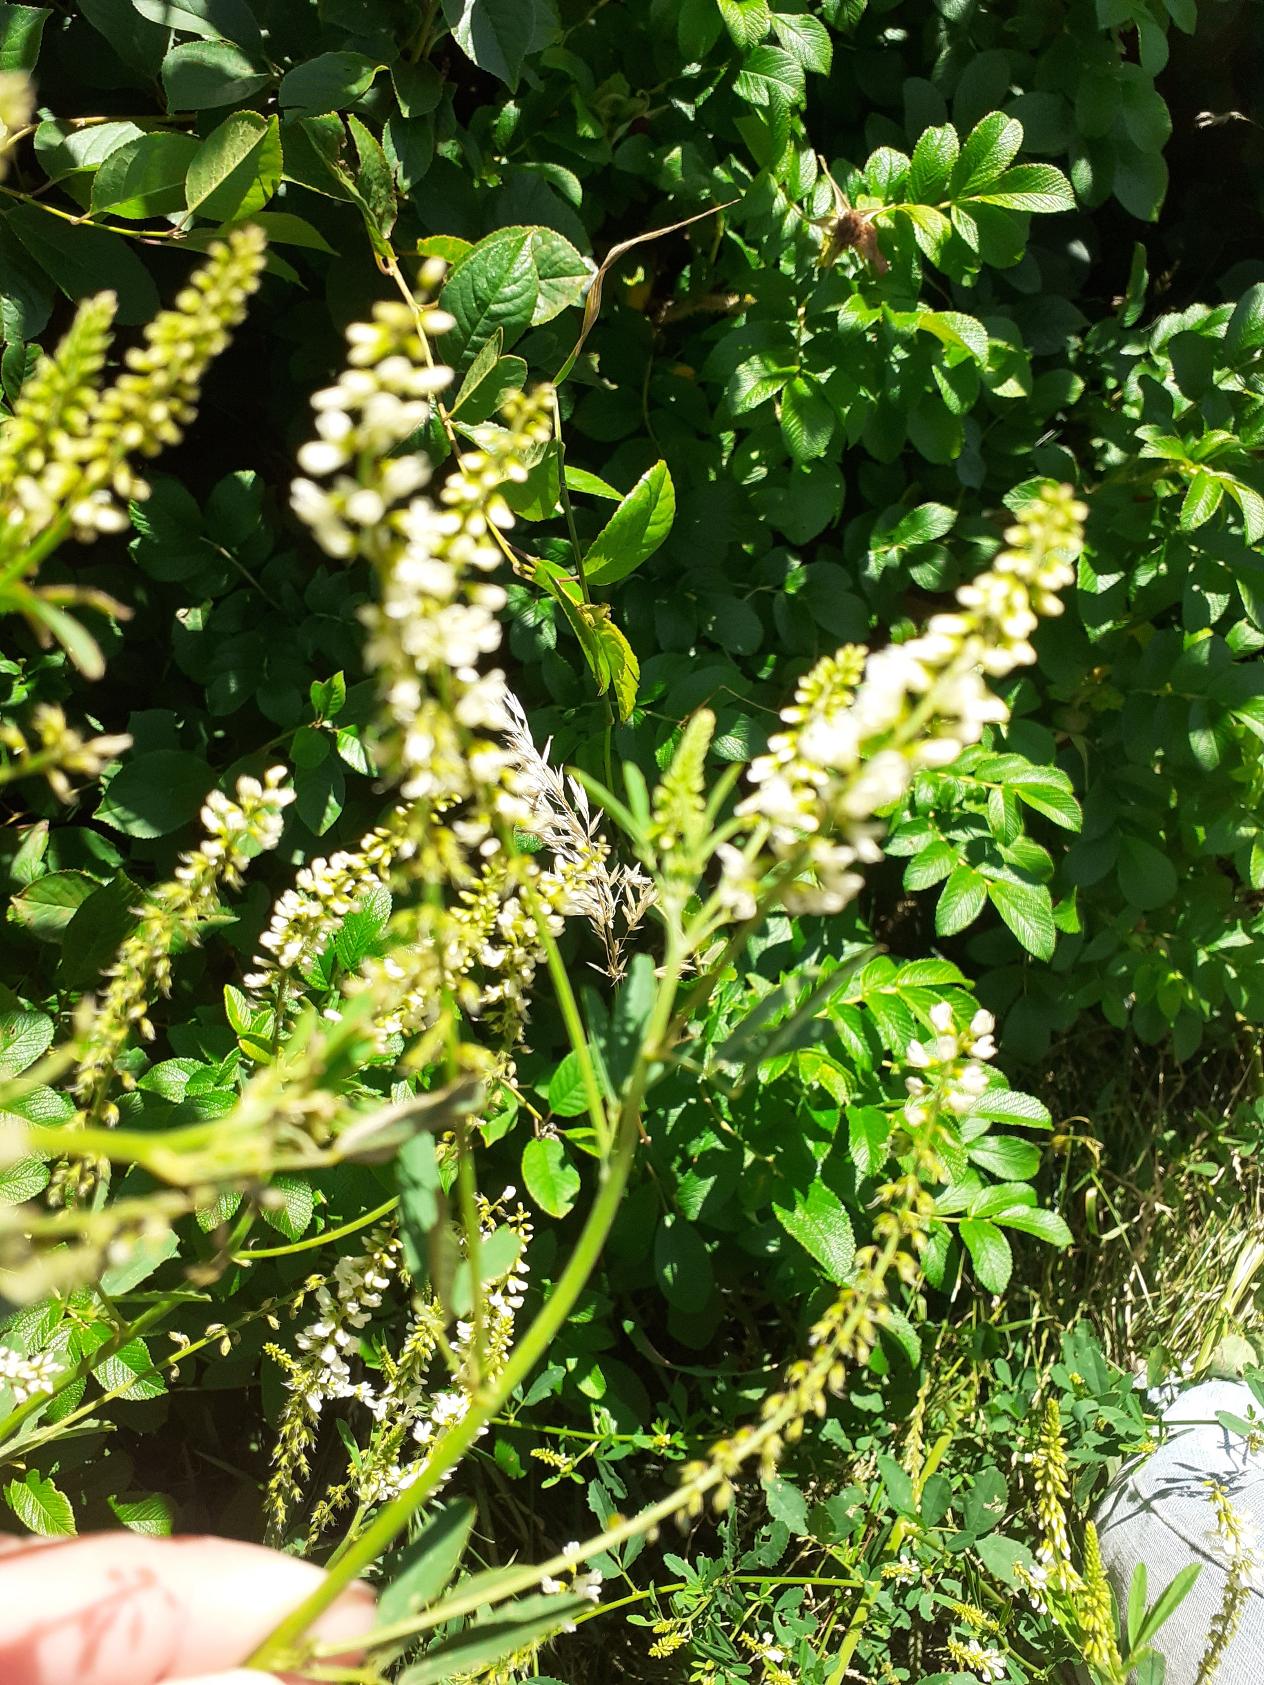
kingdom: Plantae
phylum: Tracheophyta
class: Magnoliopsida
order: Fabales
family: Fabaceae
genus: Melilotus
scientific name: Melilotus albus
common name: Hvid stenkløver
